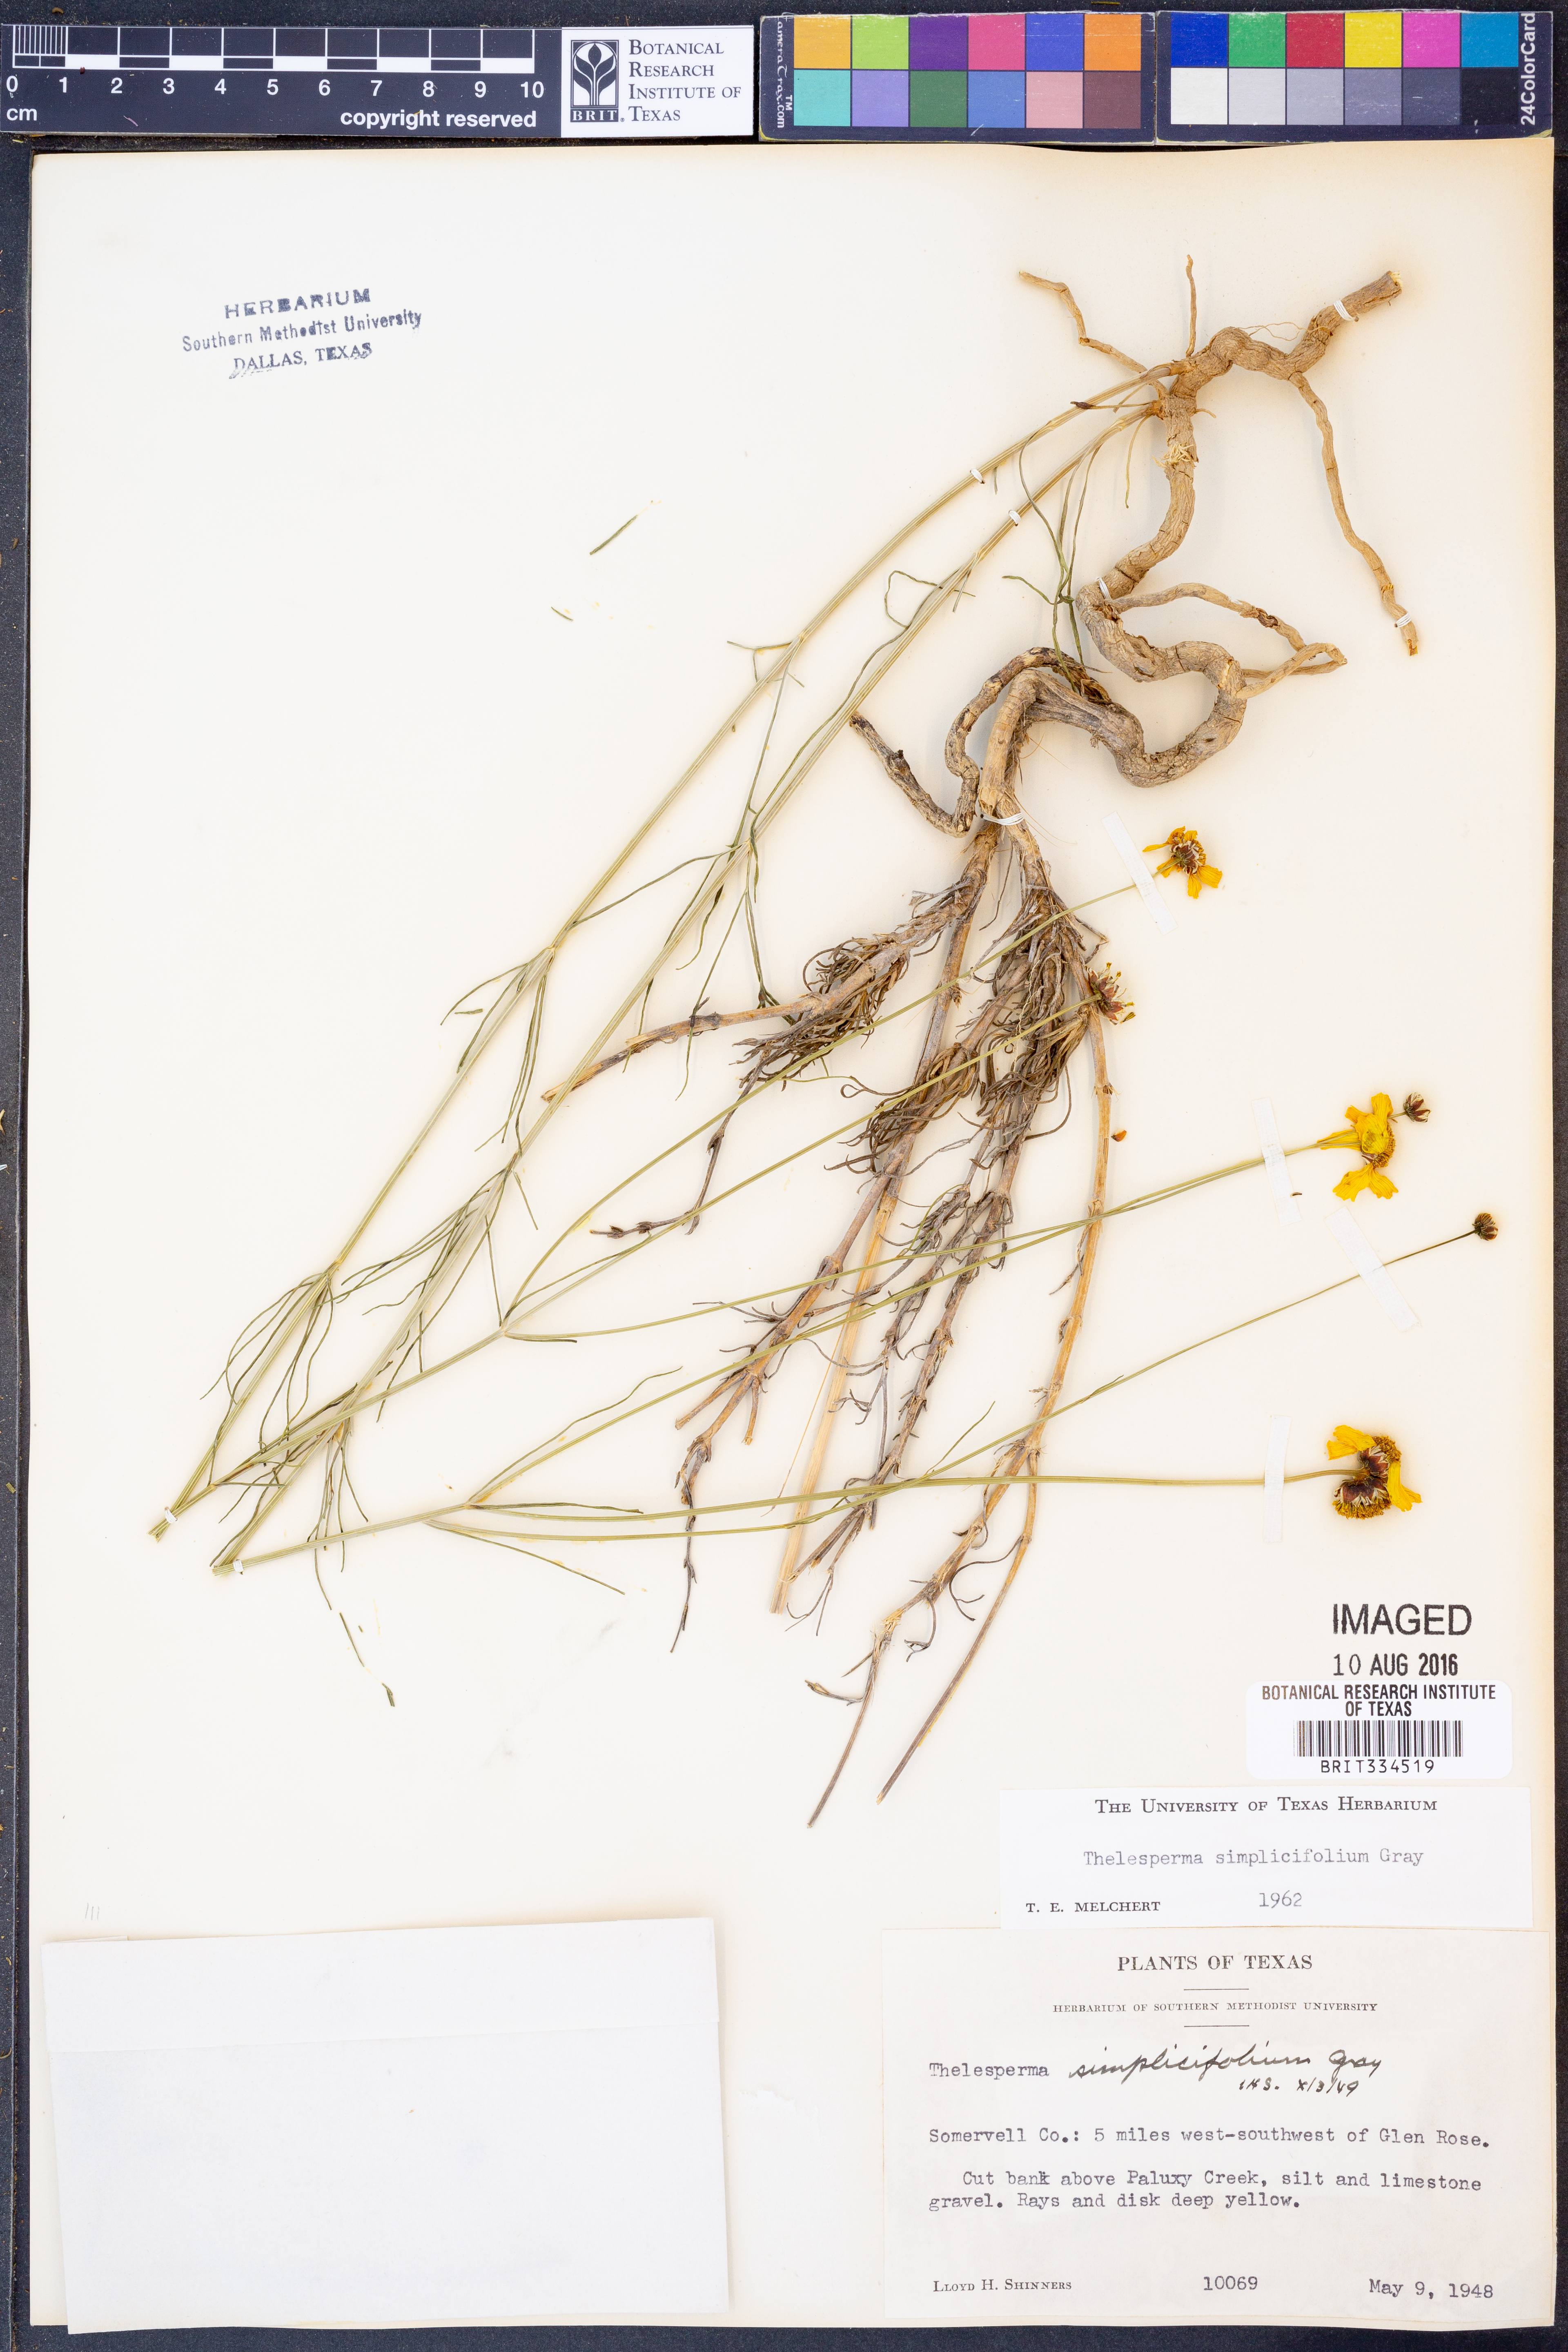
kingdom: Plantae
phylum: Tracheophyta
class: Magnoliopsida
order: Asterales
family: Asteraceae
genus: Thelesperma
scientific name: Thelesperma simplicifolium
